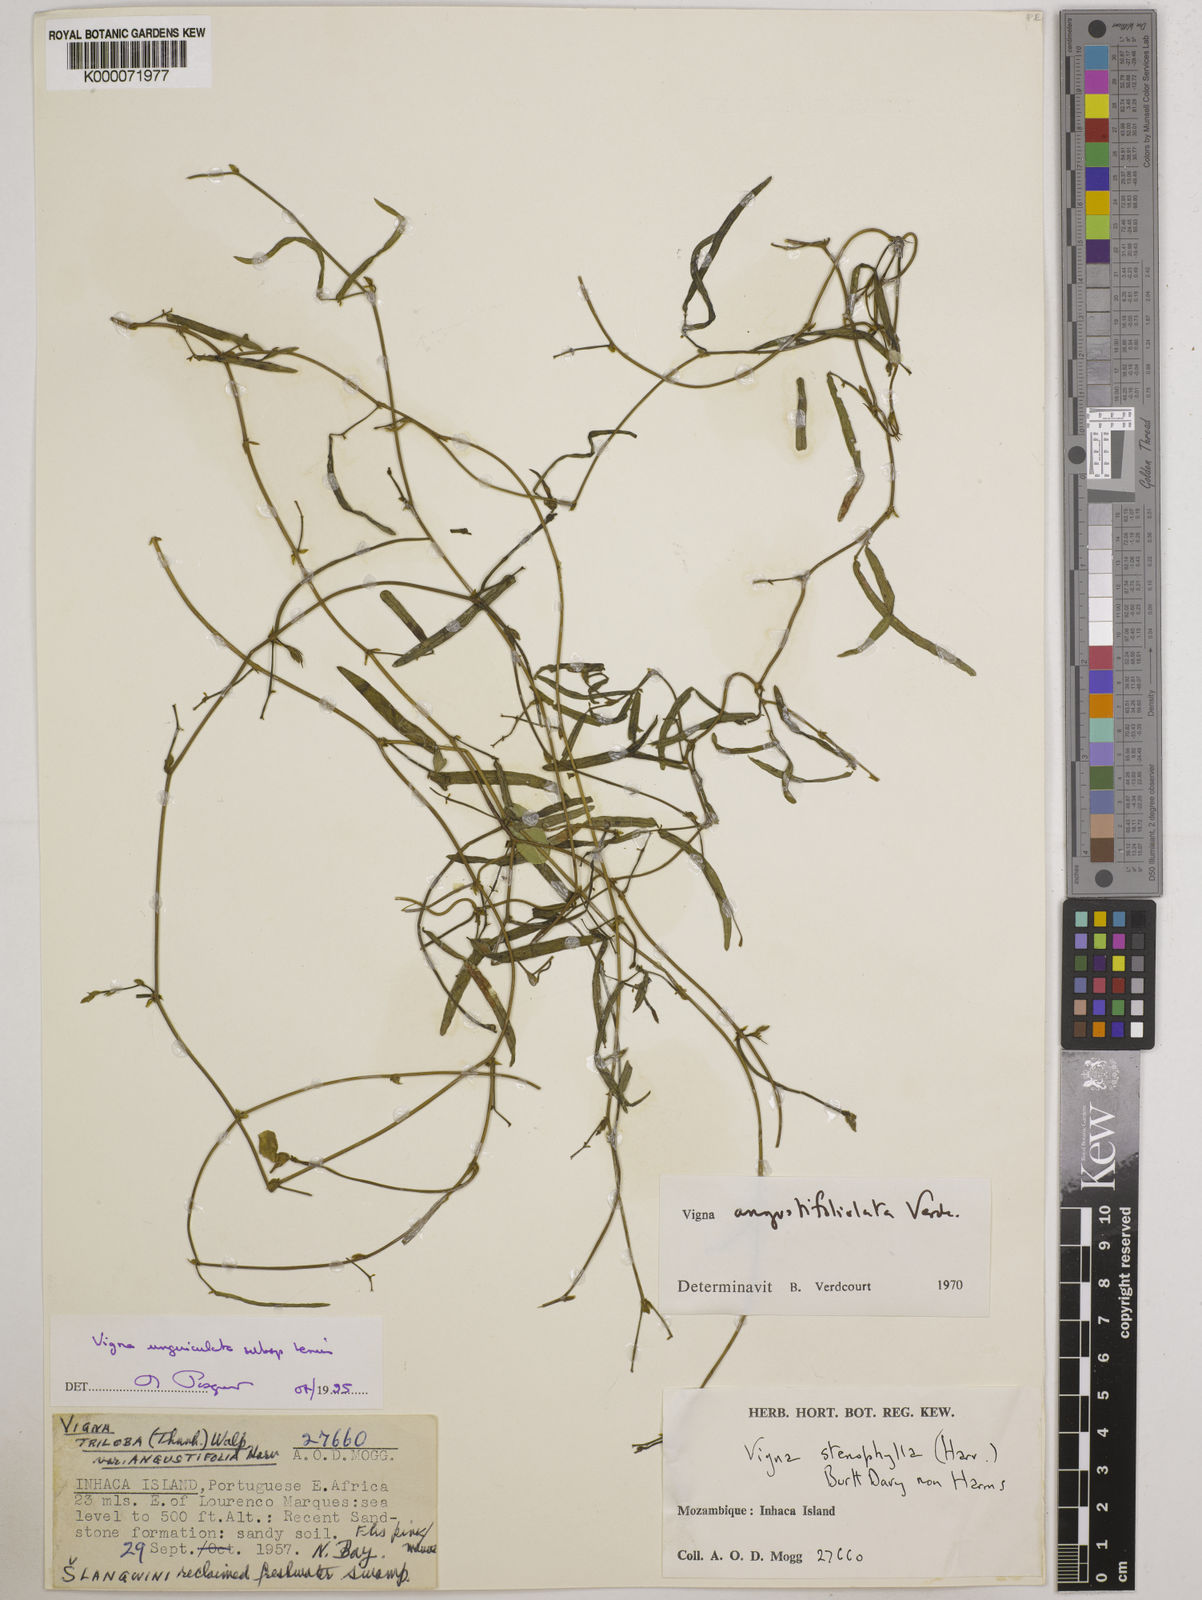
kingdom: Plantae
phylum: Tracheophyta
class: Magnoliopsida
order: Fabales
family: Fabaceae
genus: Vigna
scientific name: Vigna unguiculata
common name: Cowpea
